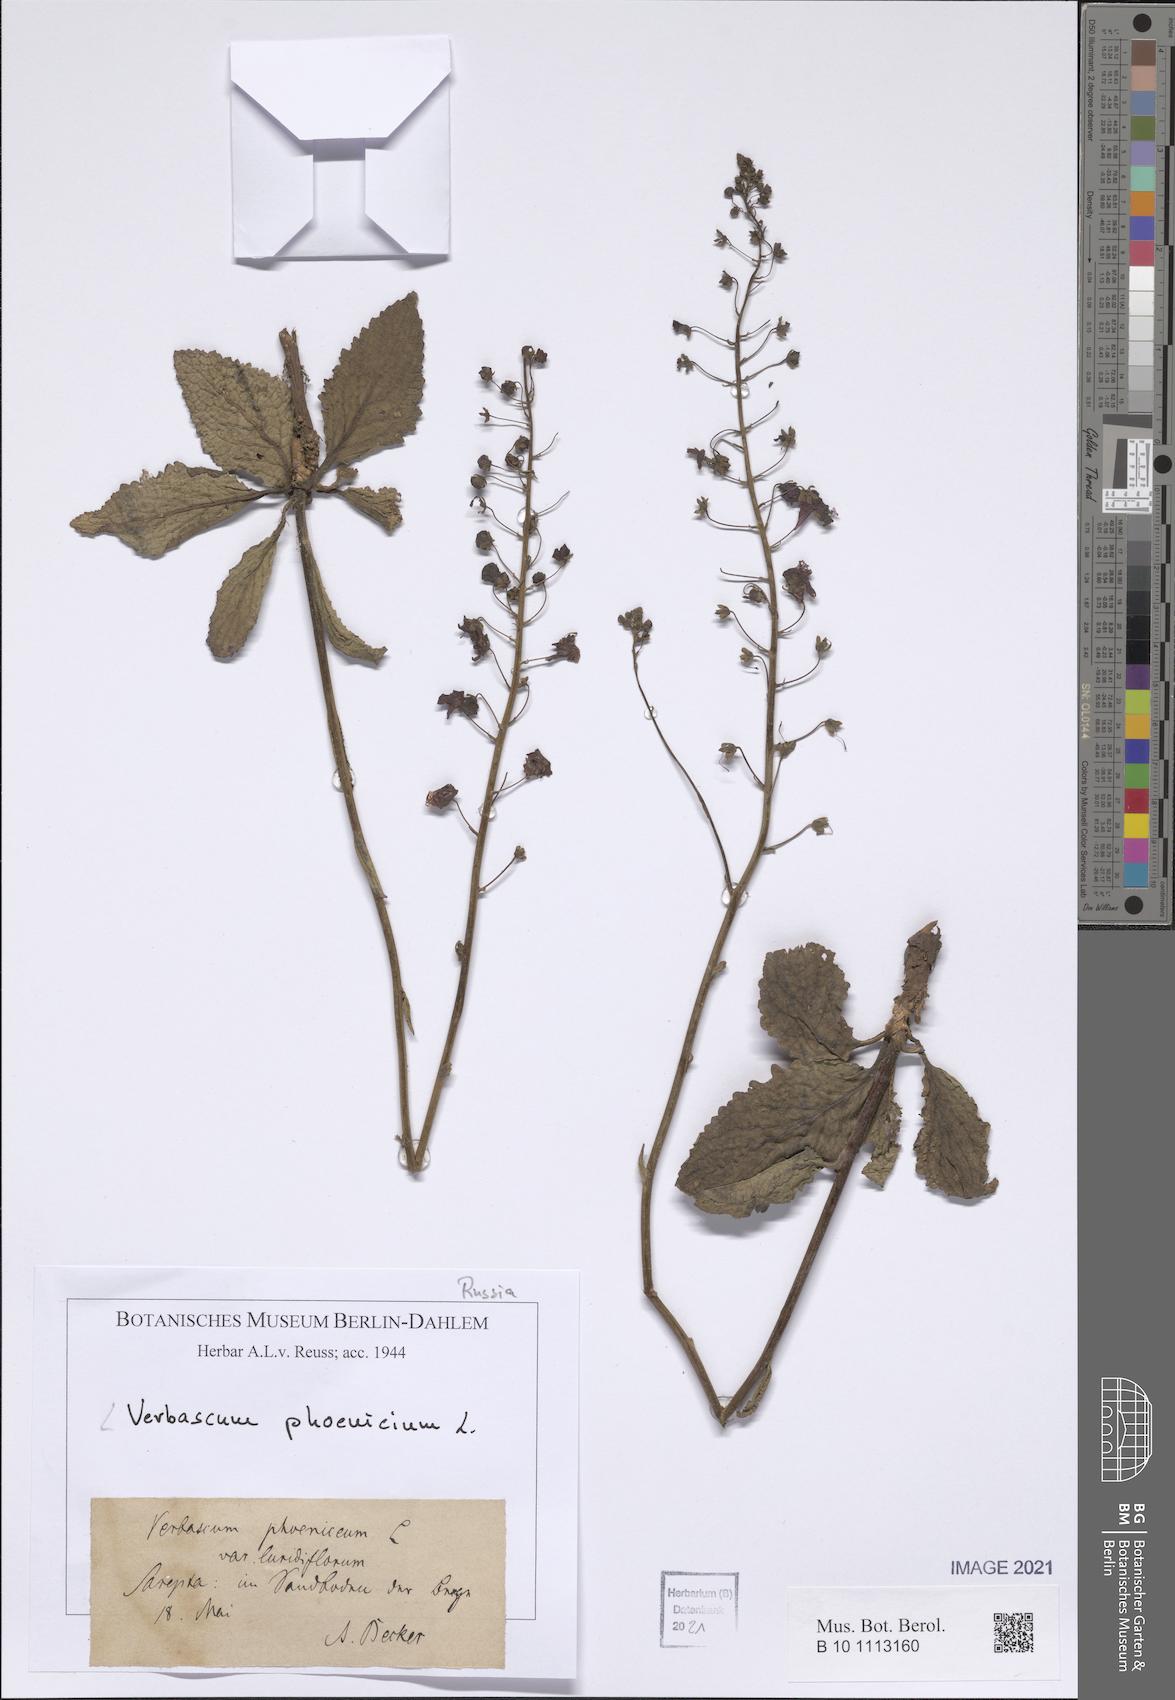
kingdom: Plantae
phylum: Tracheophyta
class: Magnoliopsida
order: Lamiales
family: Scrophulariaceae
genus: Verbascum
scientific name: Verbascum phoeniceum
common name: Purple mullein
